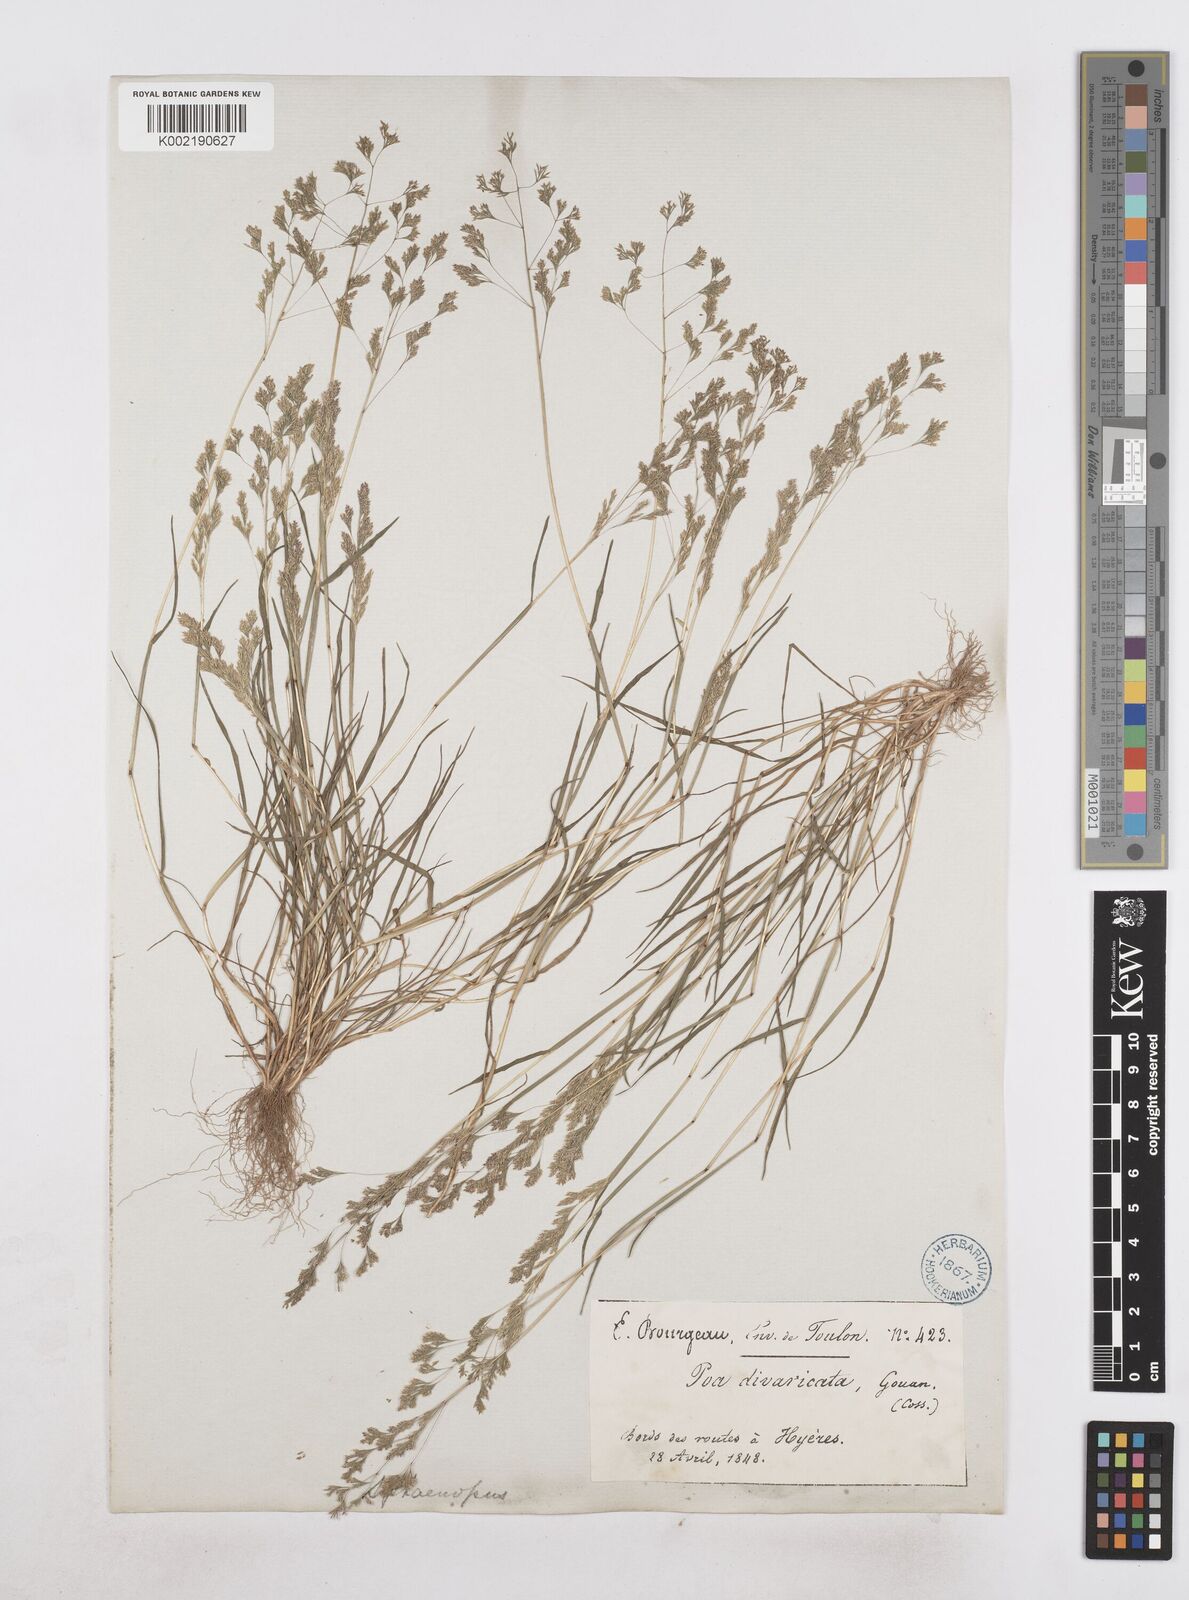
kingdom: Plantae
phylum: Tracheophyta
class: Liliopsida
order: Poales
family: Poaceae
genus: Sphenopus
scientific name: Sphenopus divaricatus
